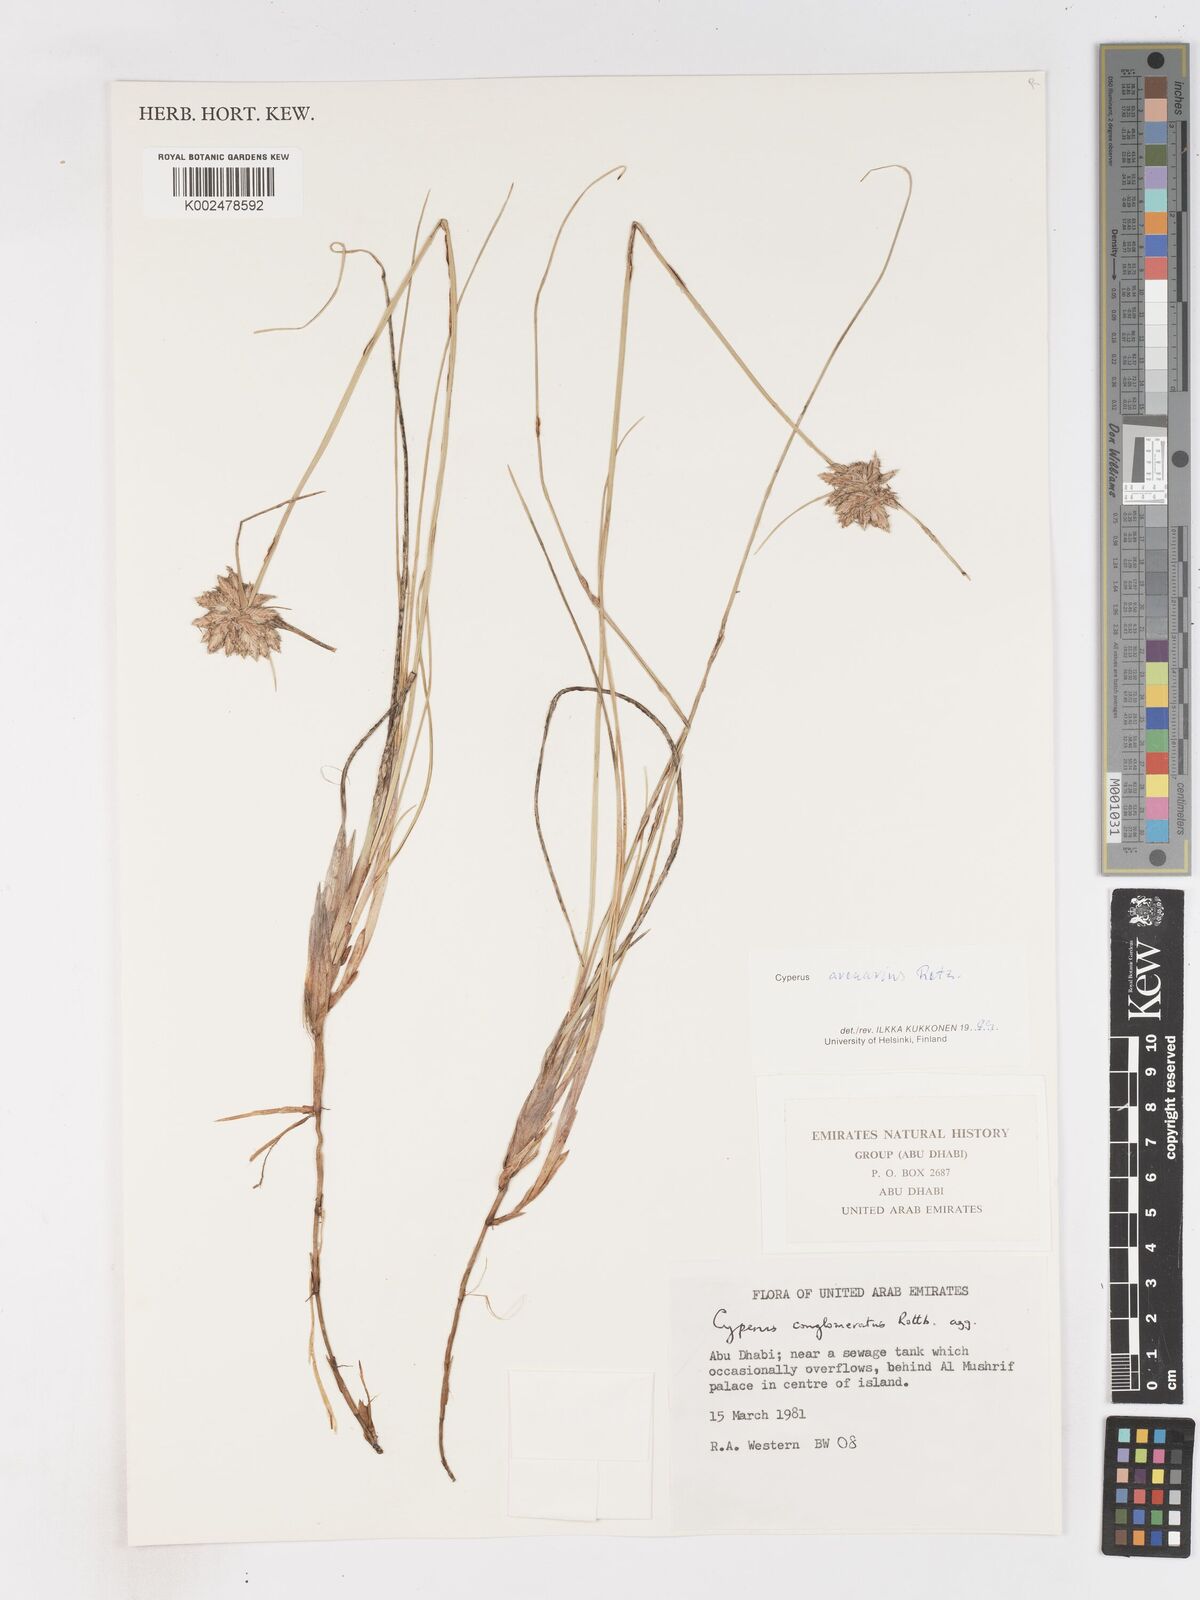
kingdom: Plantae
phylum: Tracheophyta
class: Liliopsida
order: Poales
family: Cyperaceae
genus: Cyperus
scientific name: Cyperus arenarius
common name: Dwarf sedge
